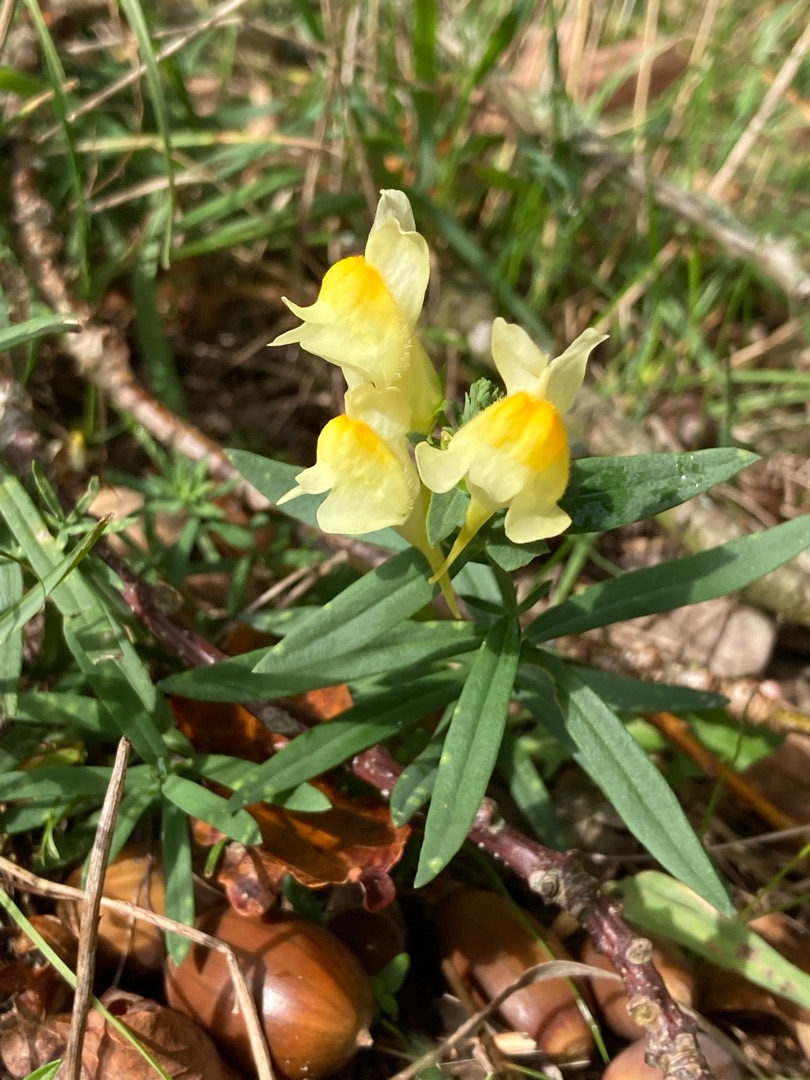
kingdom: Plantae
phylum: Tracheophyta
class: Magnoliopsida
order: Lamiales
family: Plantaginaceae
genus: Linaria
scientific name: Linaria vulgaris
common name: Almindelig torskemund
